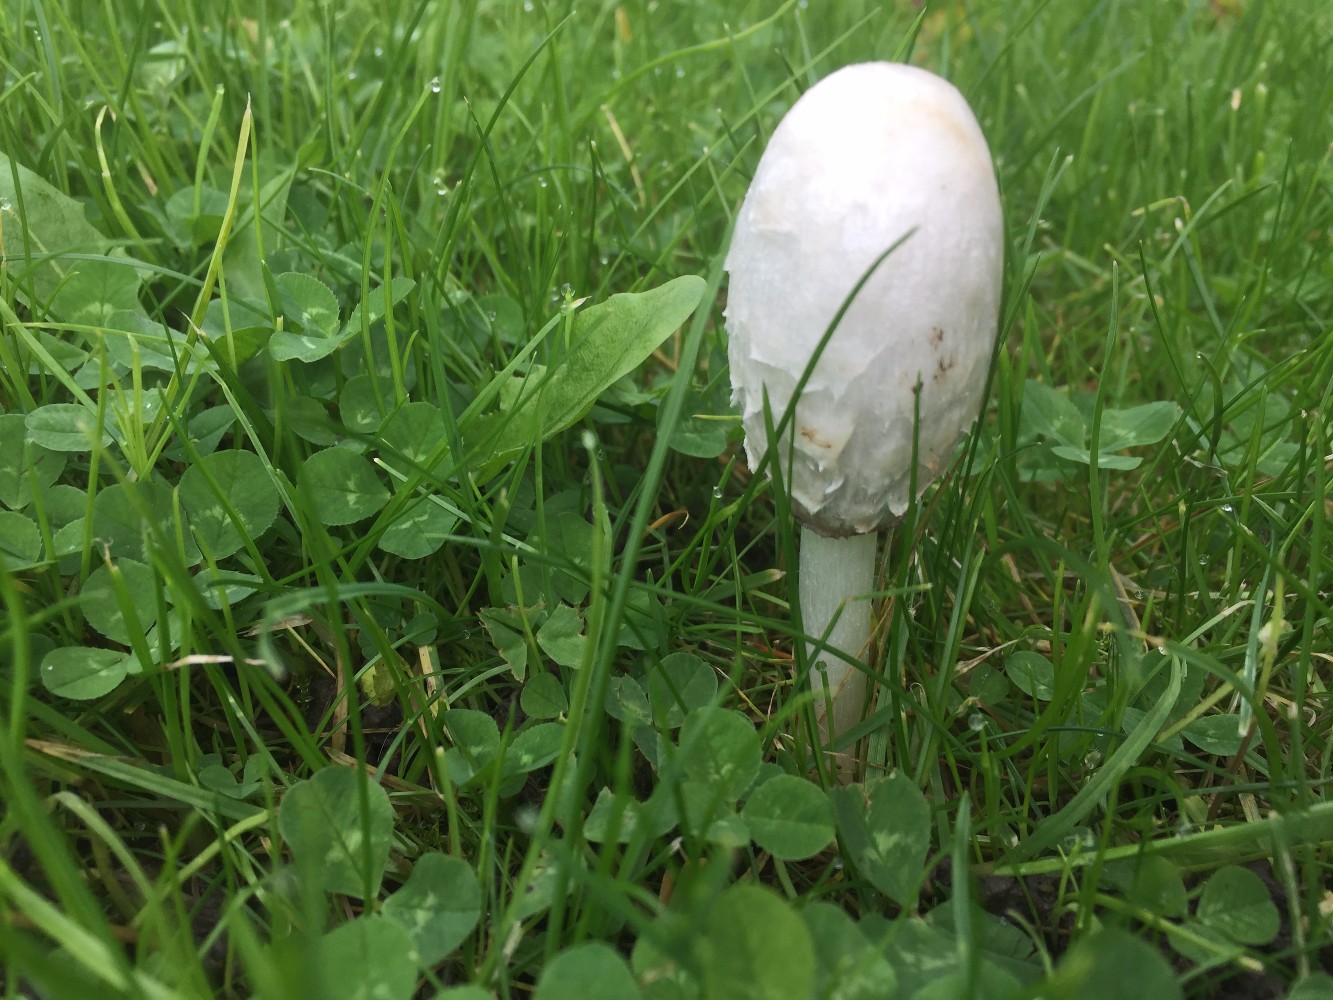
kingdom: Fungi
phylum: Basidiomycota
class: Agaricomycetes
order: Agaricales
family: Agaricaceae
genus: Coprinus
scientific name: Coprinus comatus
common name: stor parykhat
